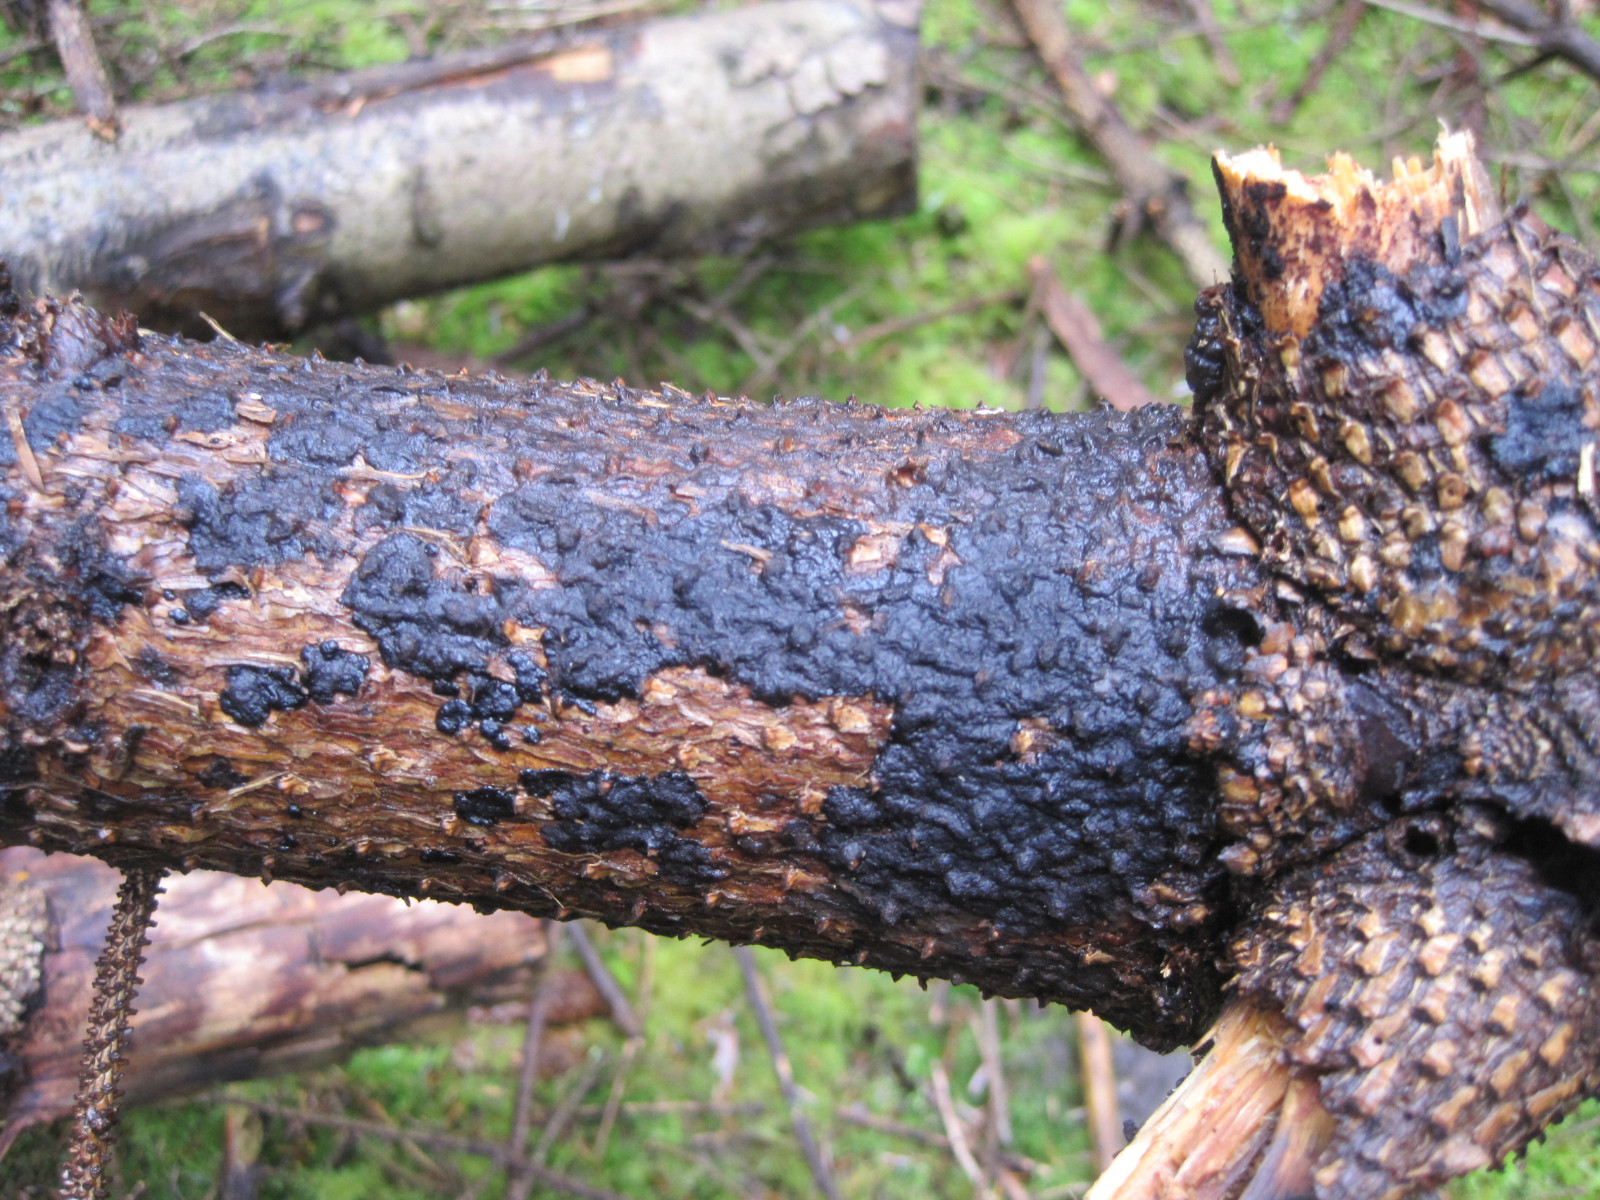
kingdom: Fungi
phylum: Basidiomycota
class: Agaricomycetes
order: Auriculariales
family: Auriculariaceae
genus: Exidia
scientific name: Exidia pithya
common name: gran-bævretop
